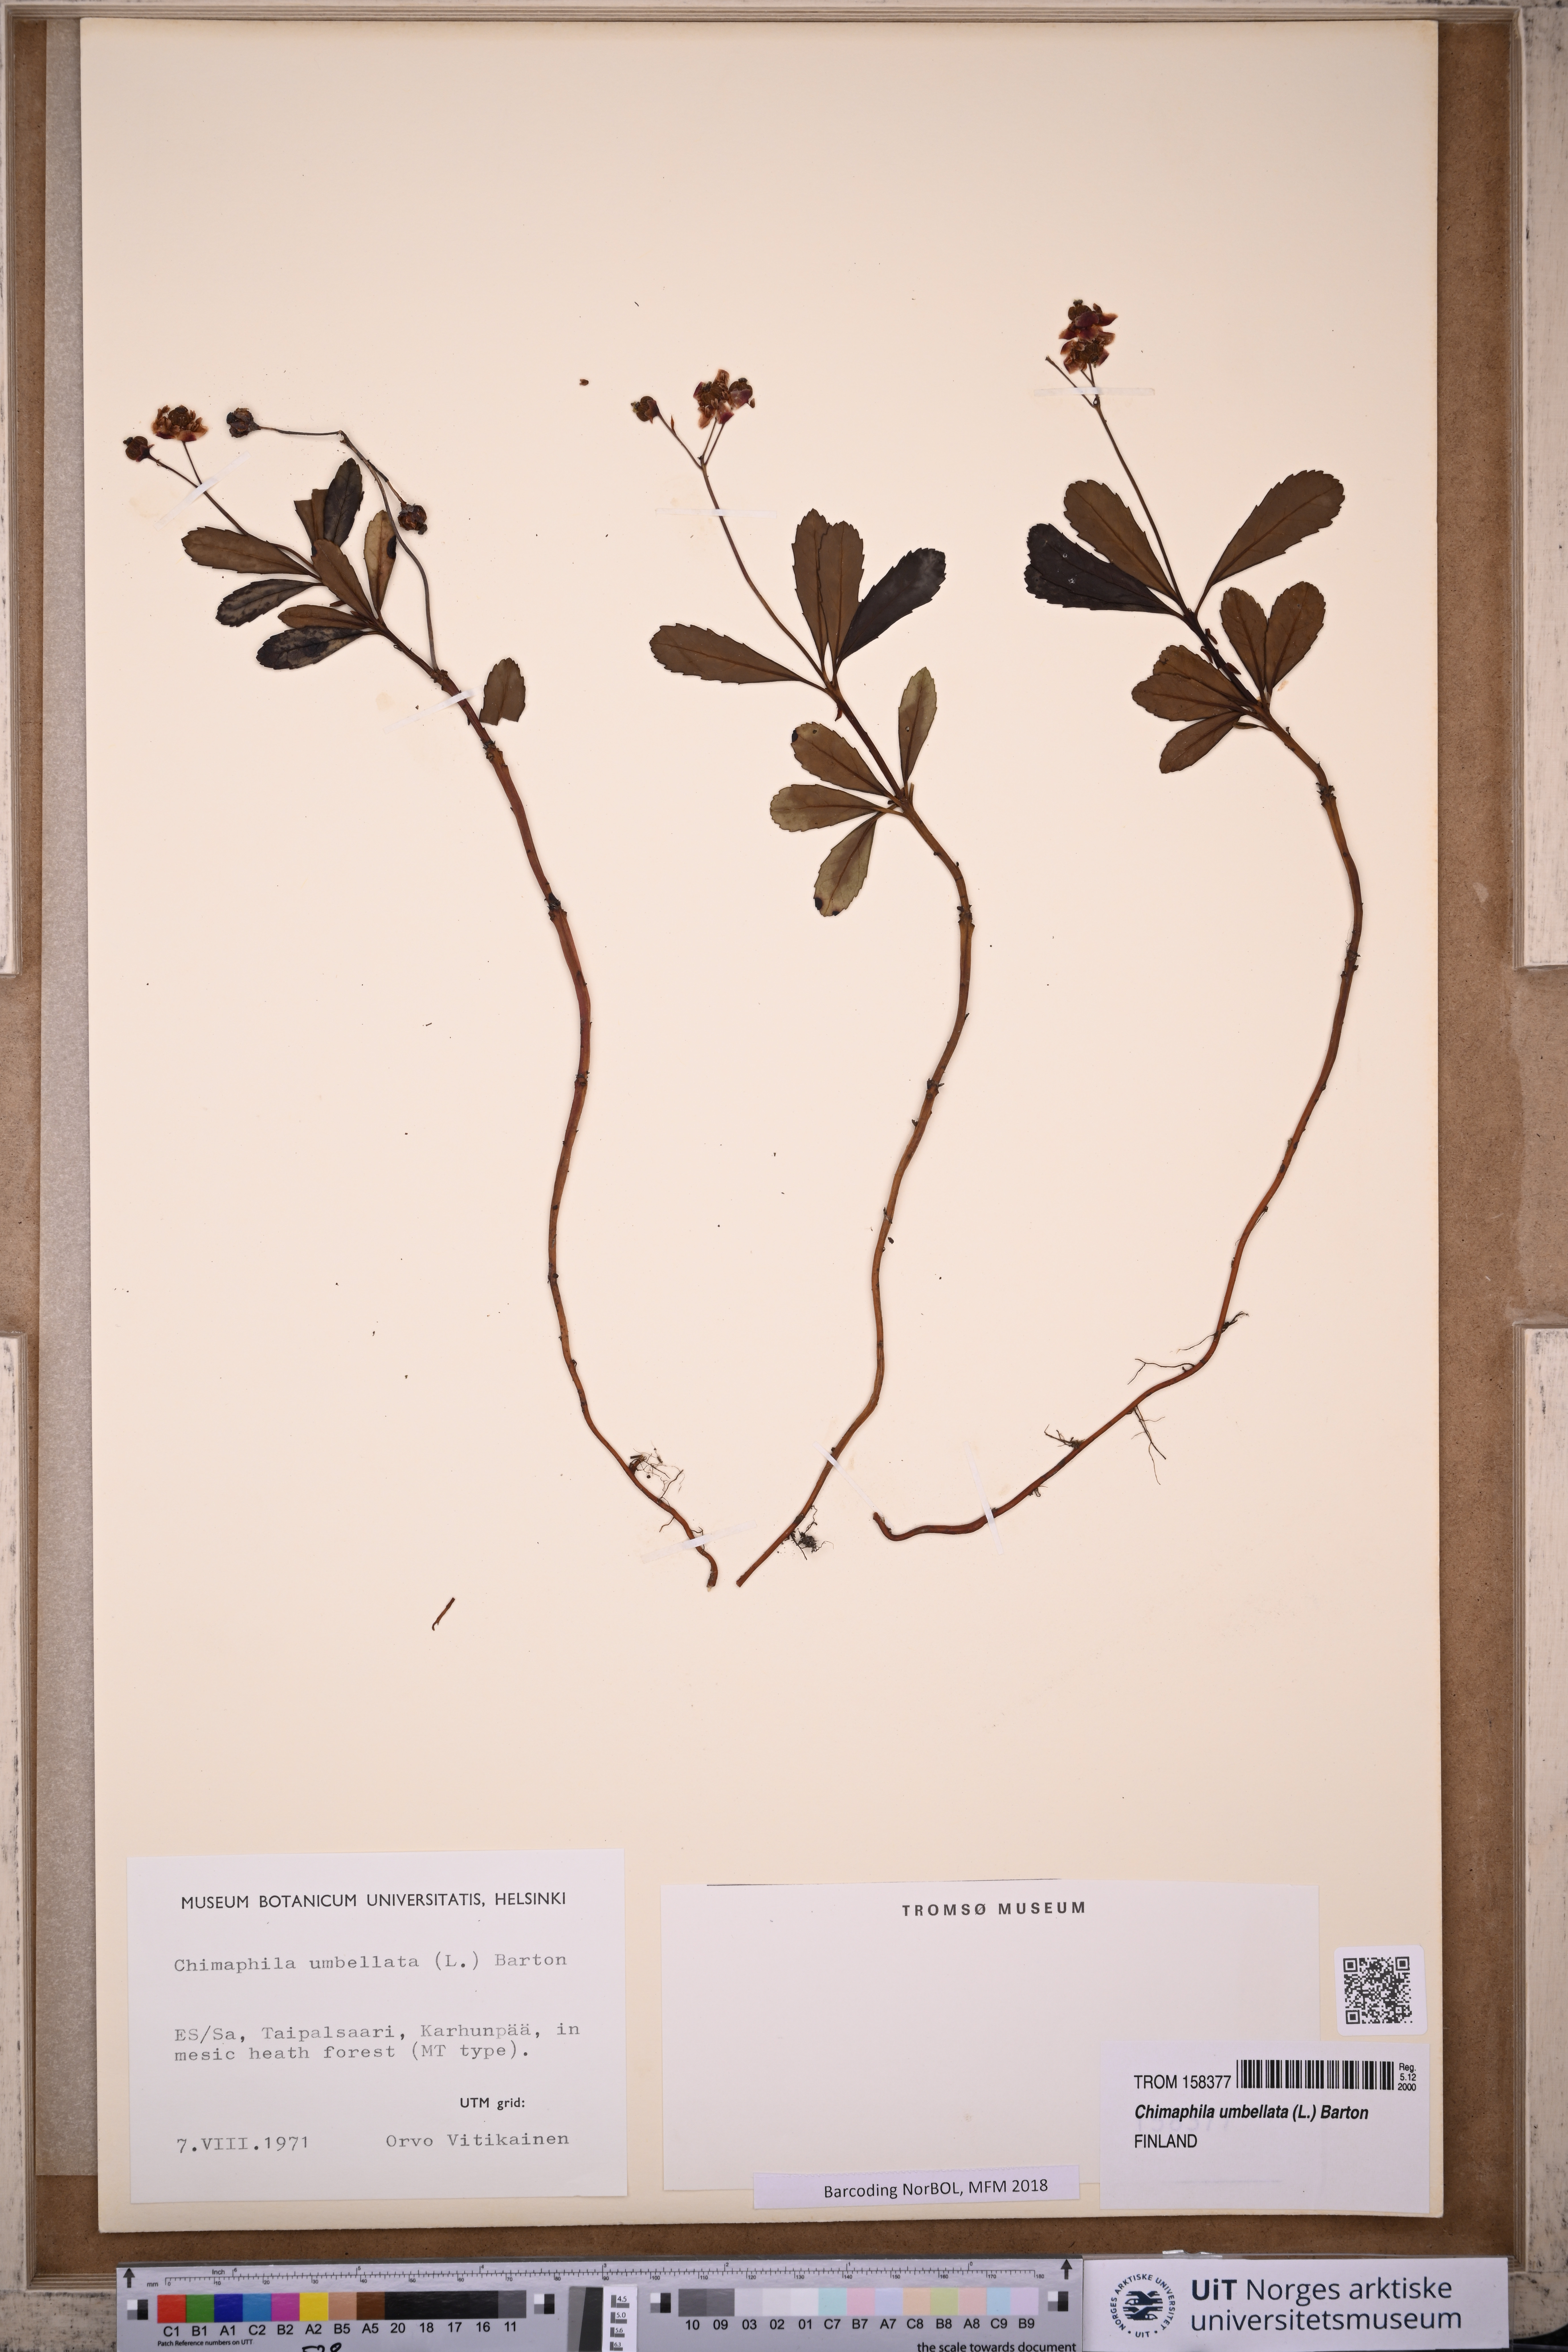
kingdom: Plantae
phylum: Tracheophyta
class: Magnoliopsida
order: Ericales
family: Ericaceae
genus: Chimaphila
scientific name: Chimaphila umbellata
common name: Pipsissewa
